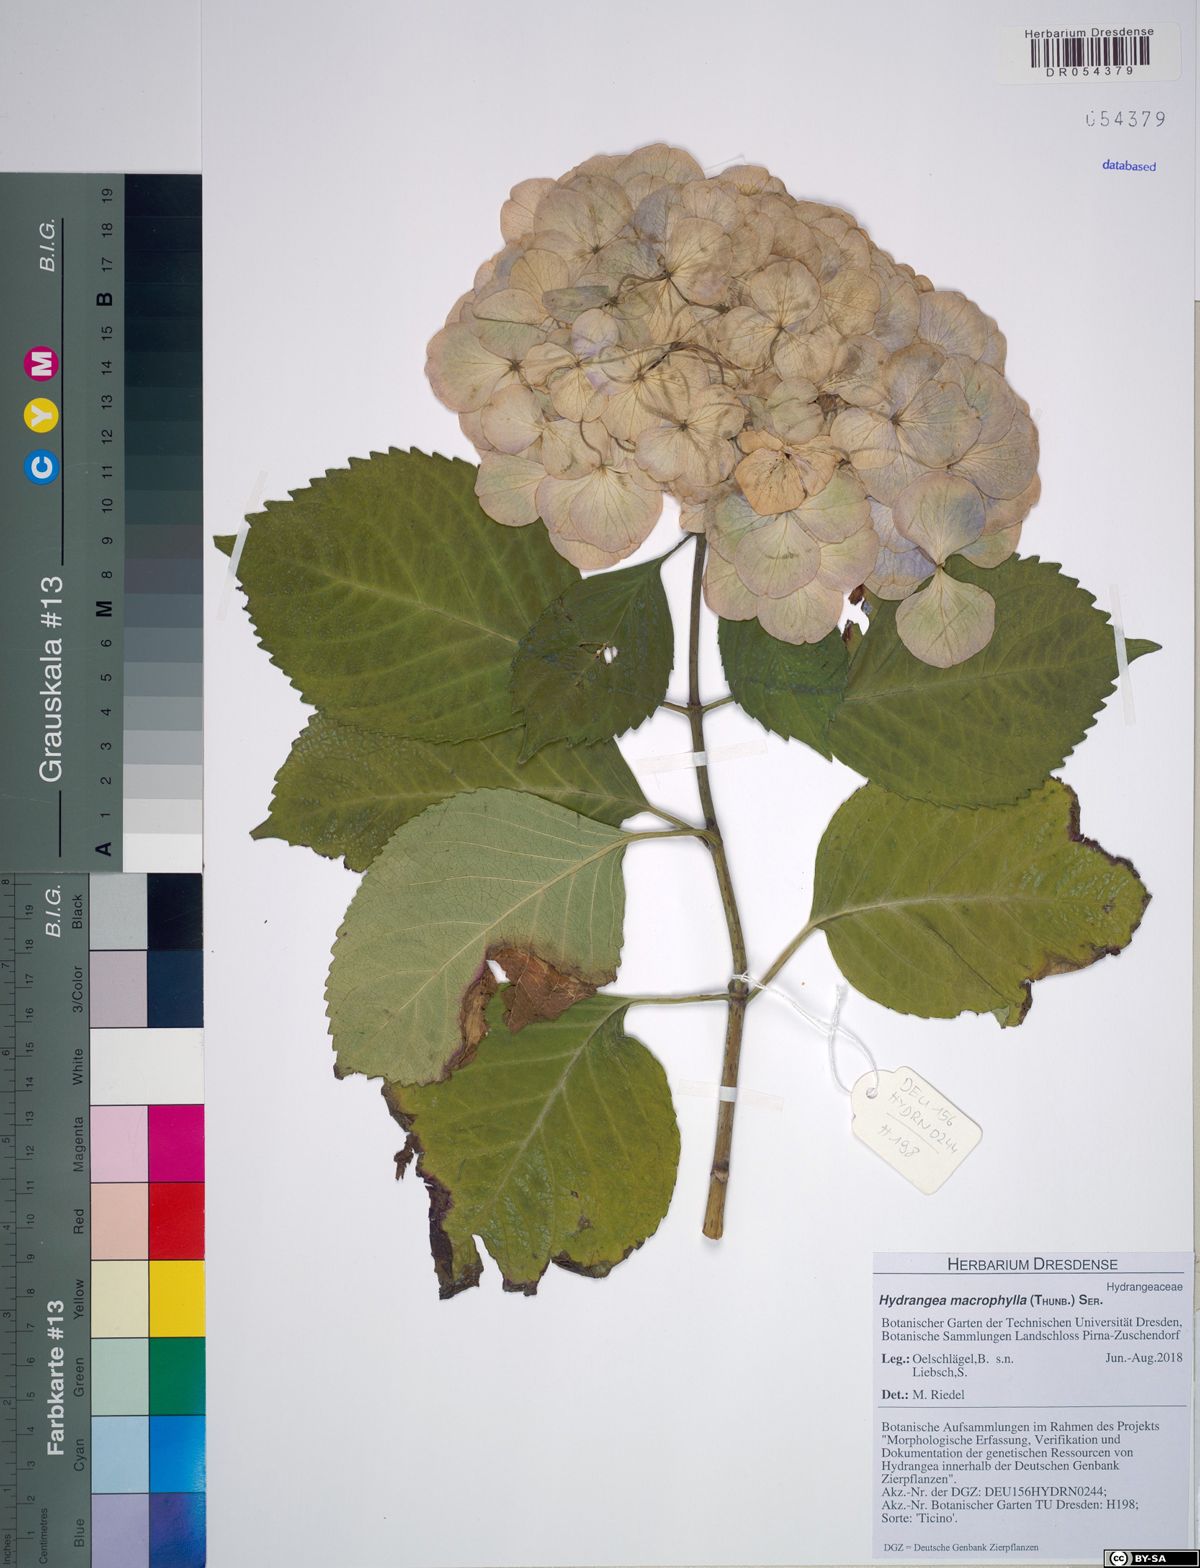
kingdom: Plantae
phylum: Tracheophyta
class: Magnoliopsida
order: Cornales
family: Hydrangeaceae
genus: Hydrangea
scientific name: Hydrangea macrophylla
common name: Hydrangea
